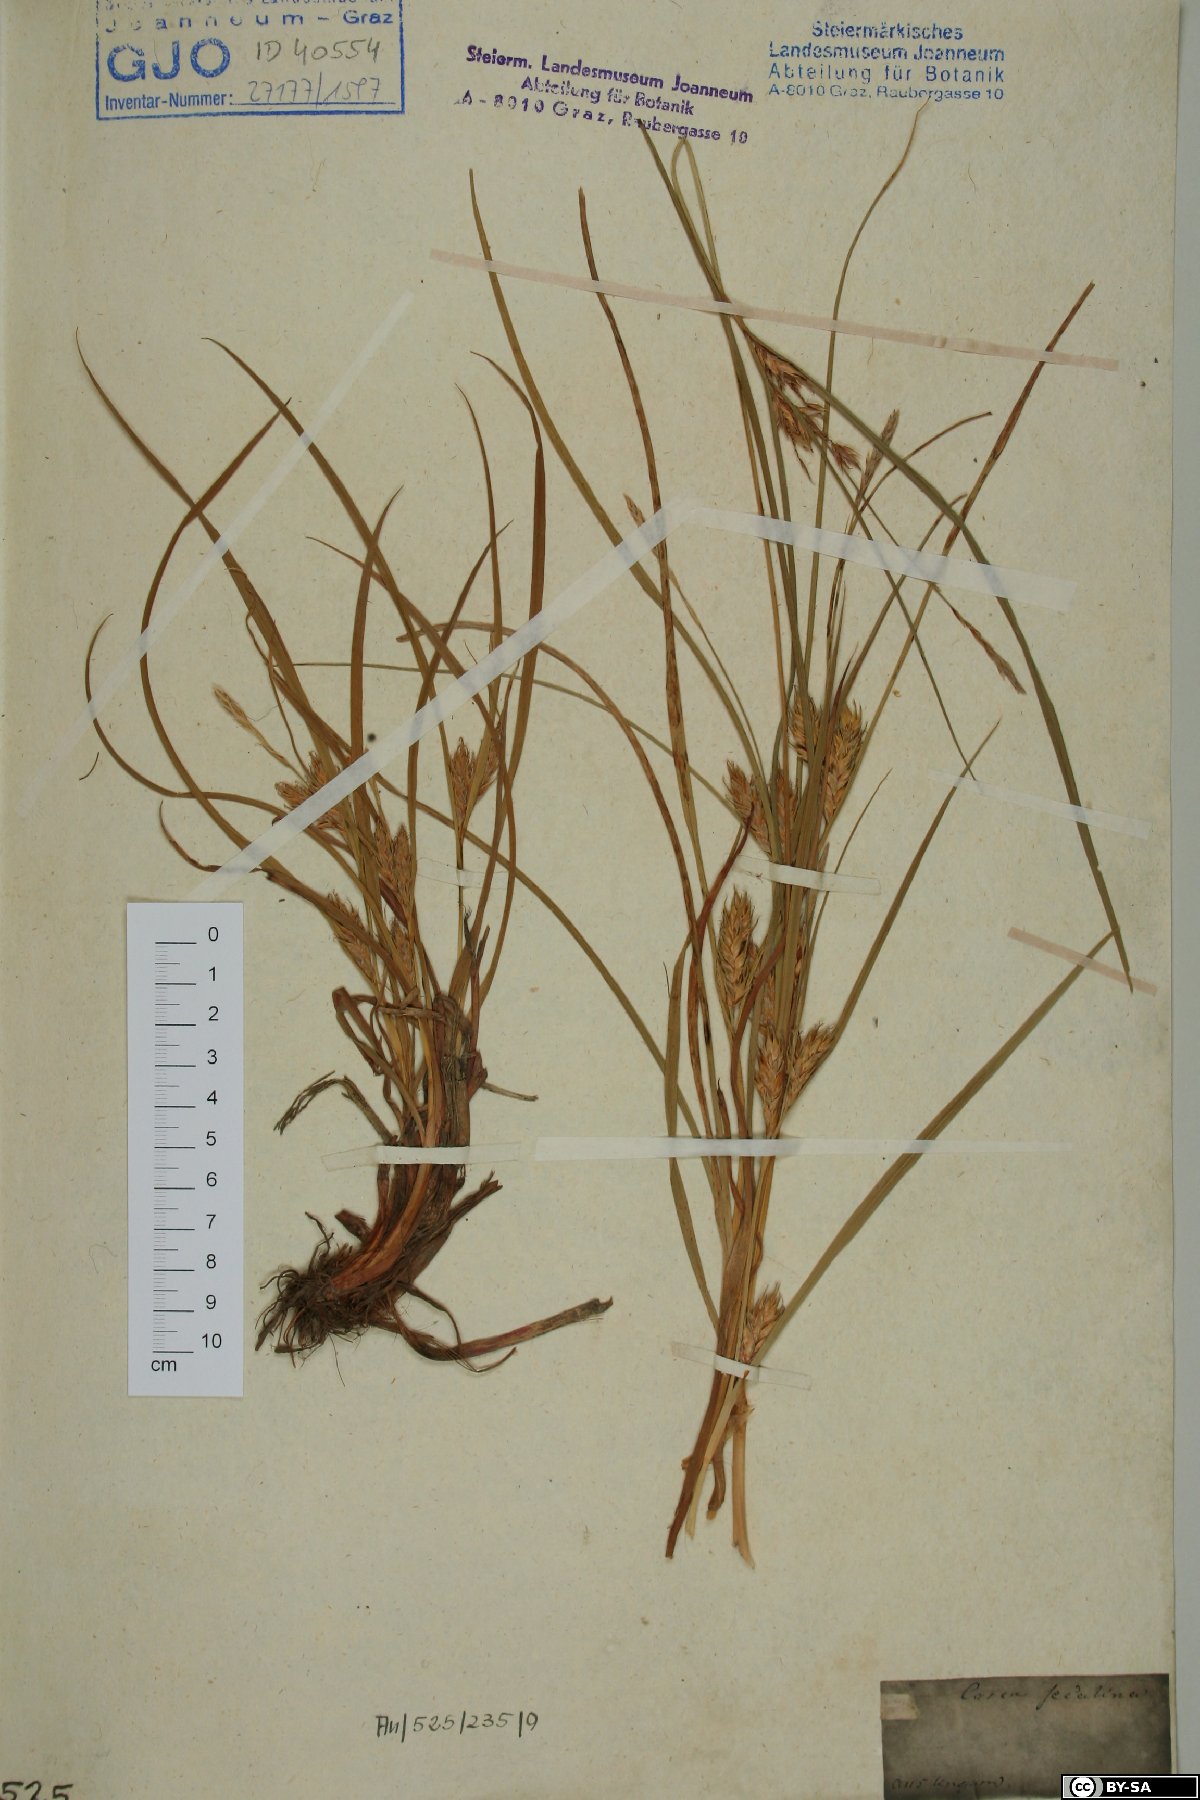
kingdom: Plantae
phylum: Tracheophyta
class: Liliopsida
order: Poales
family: Cyperaceae
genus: Carex
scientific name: Carex secalina
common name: Rye sedge
